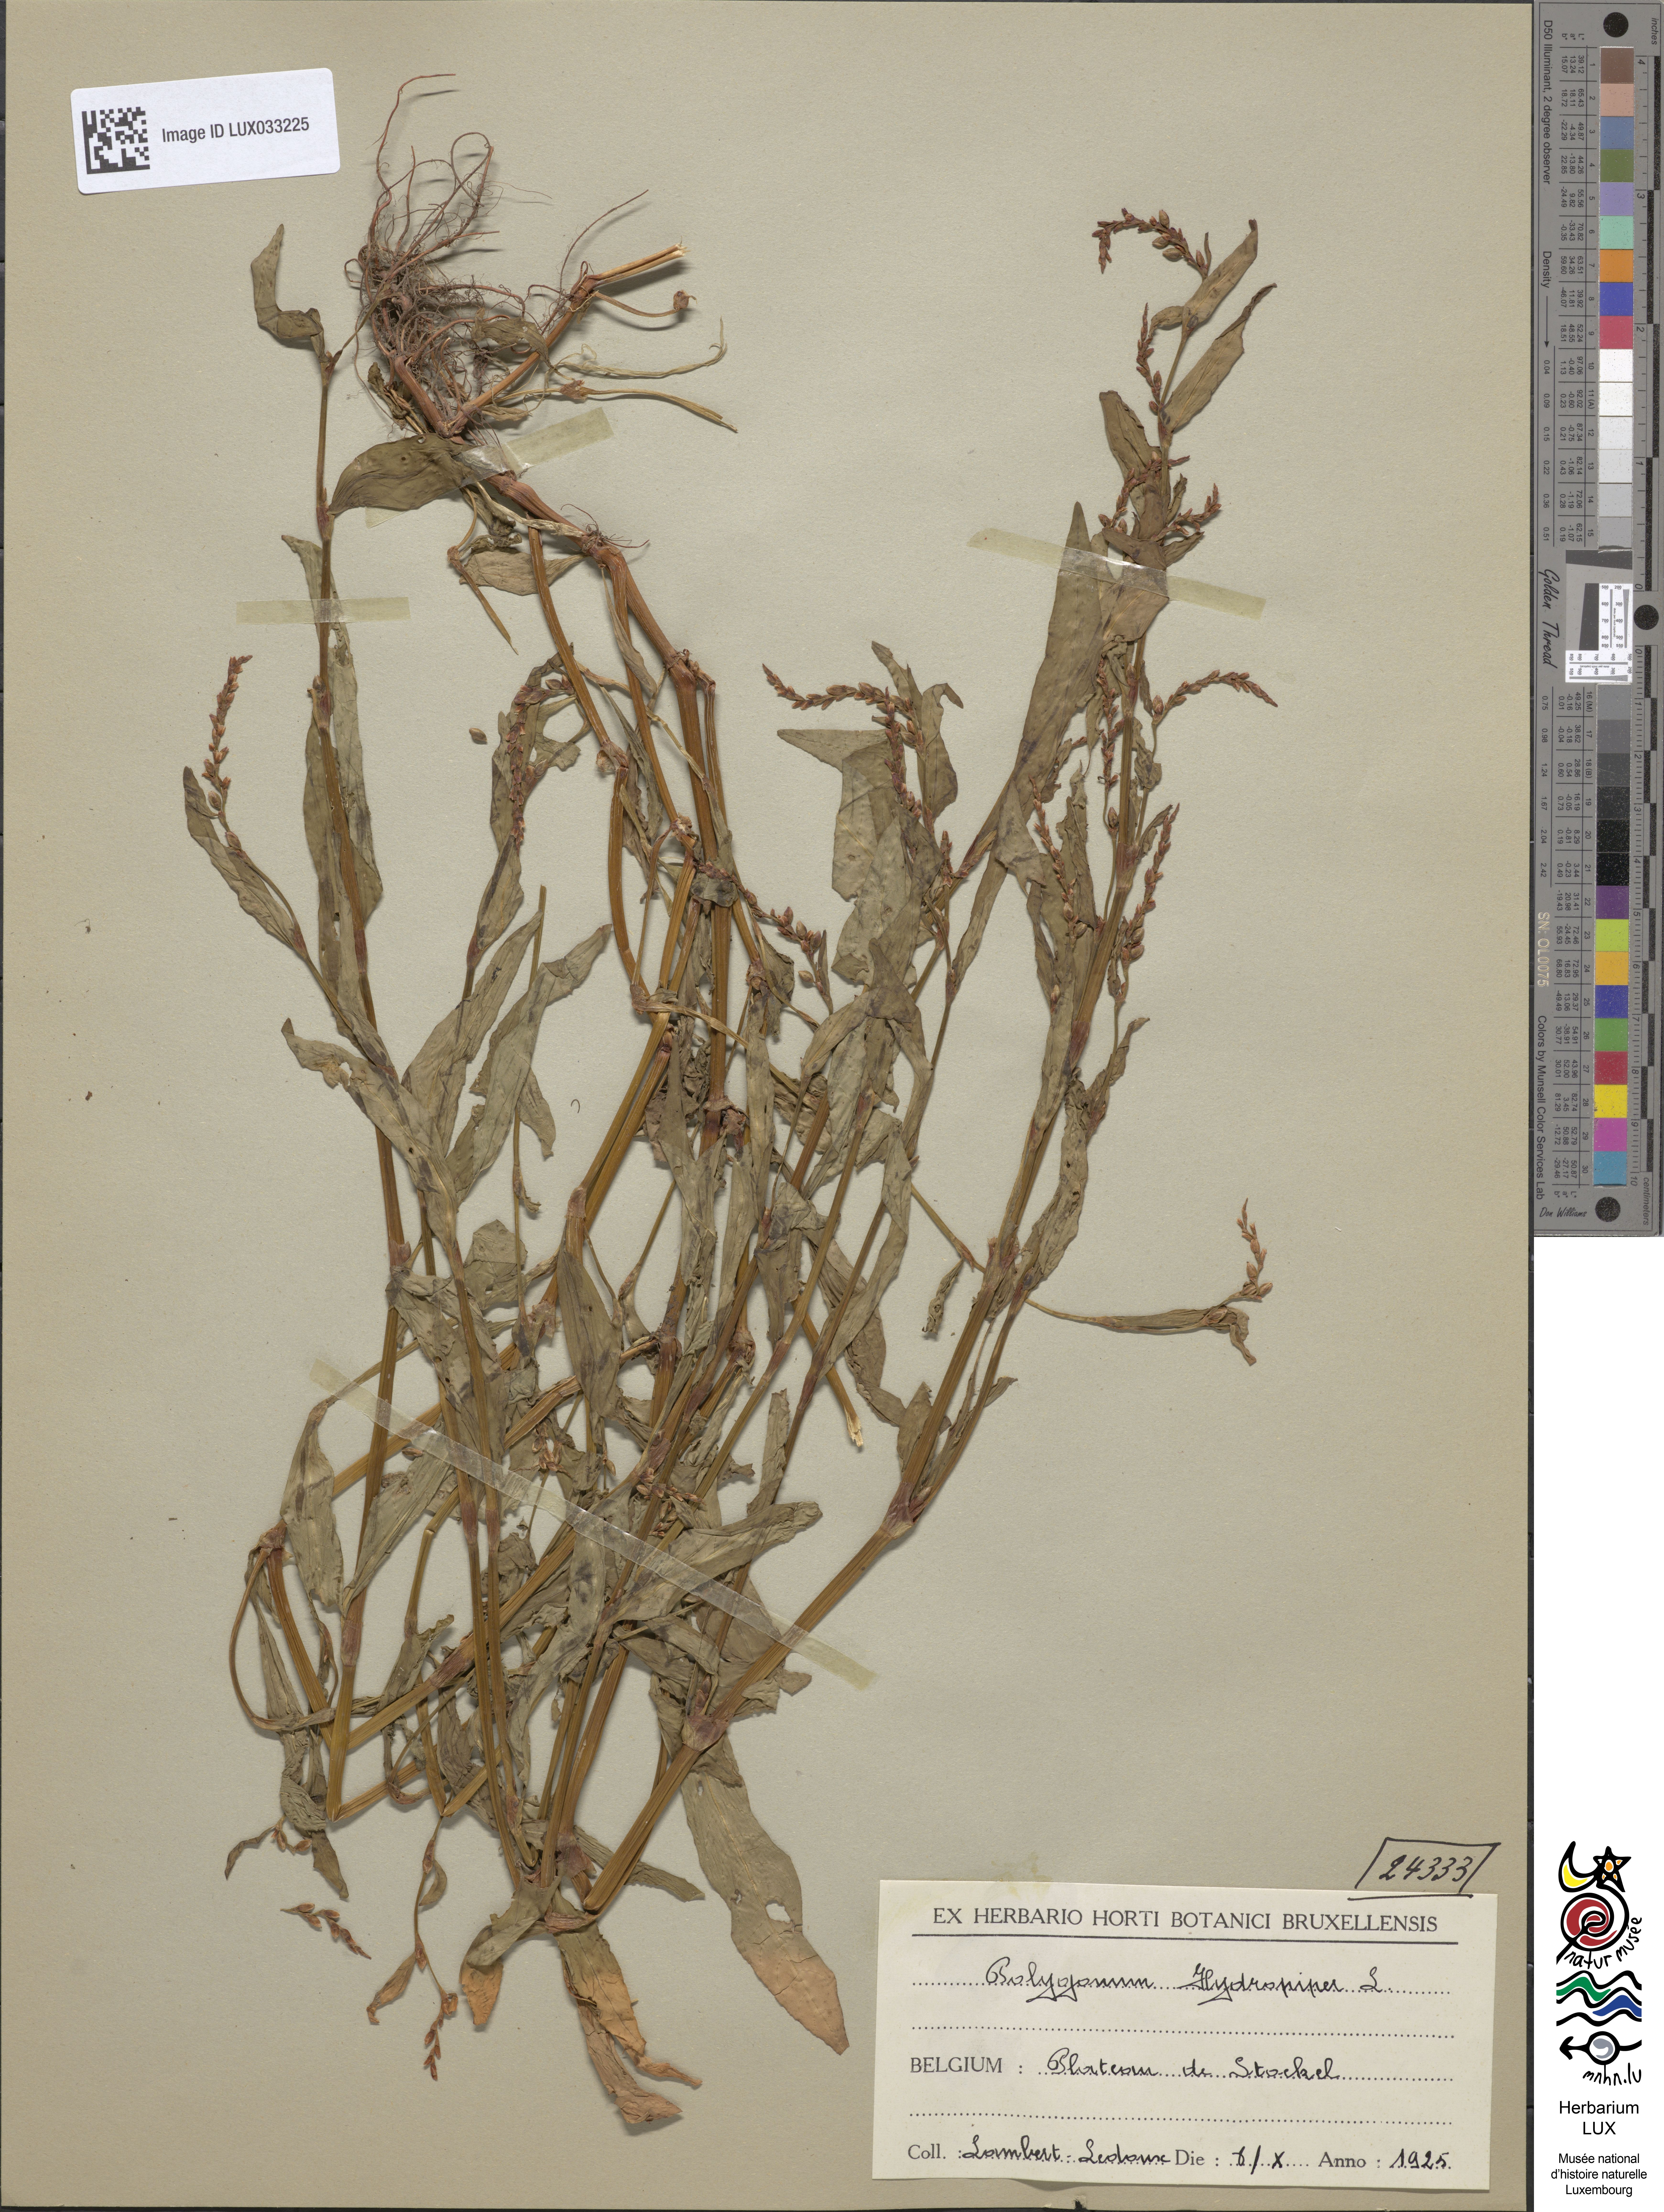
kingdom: Plantae
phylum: Tracheophyta
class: Magnoliopsida
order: Caryophyllales
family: Polygonaceae
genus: Persicaria
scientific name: Persicaria hydropiper
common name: Water-pepper
